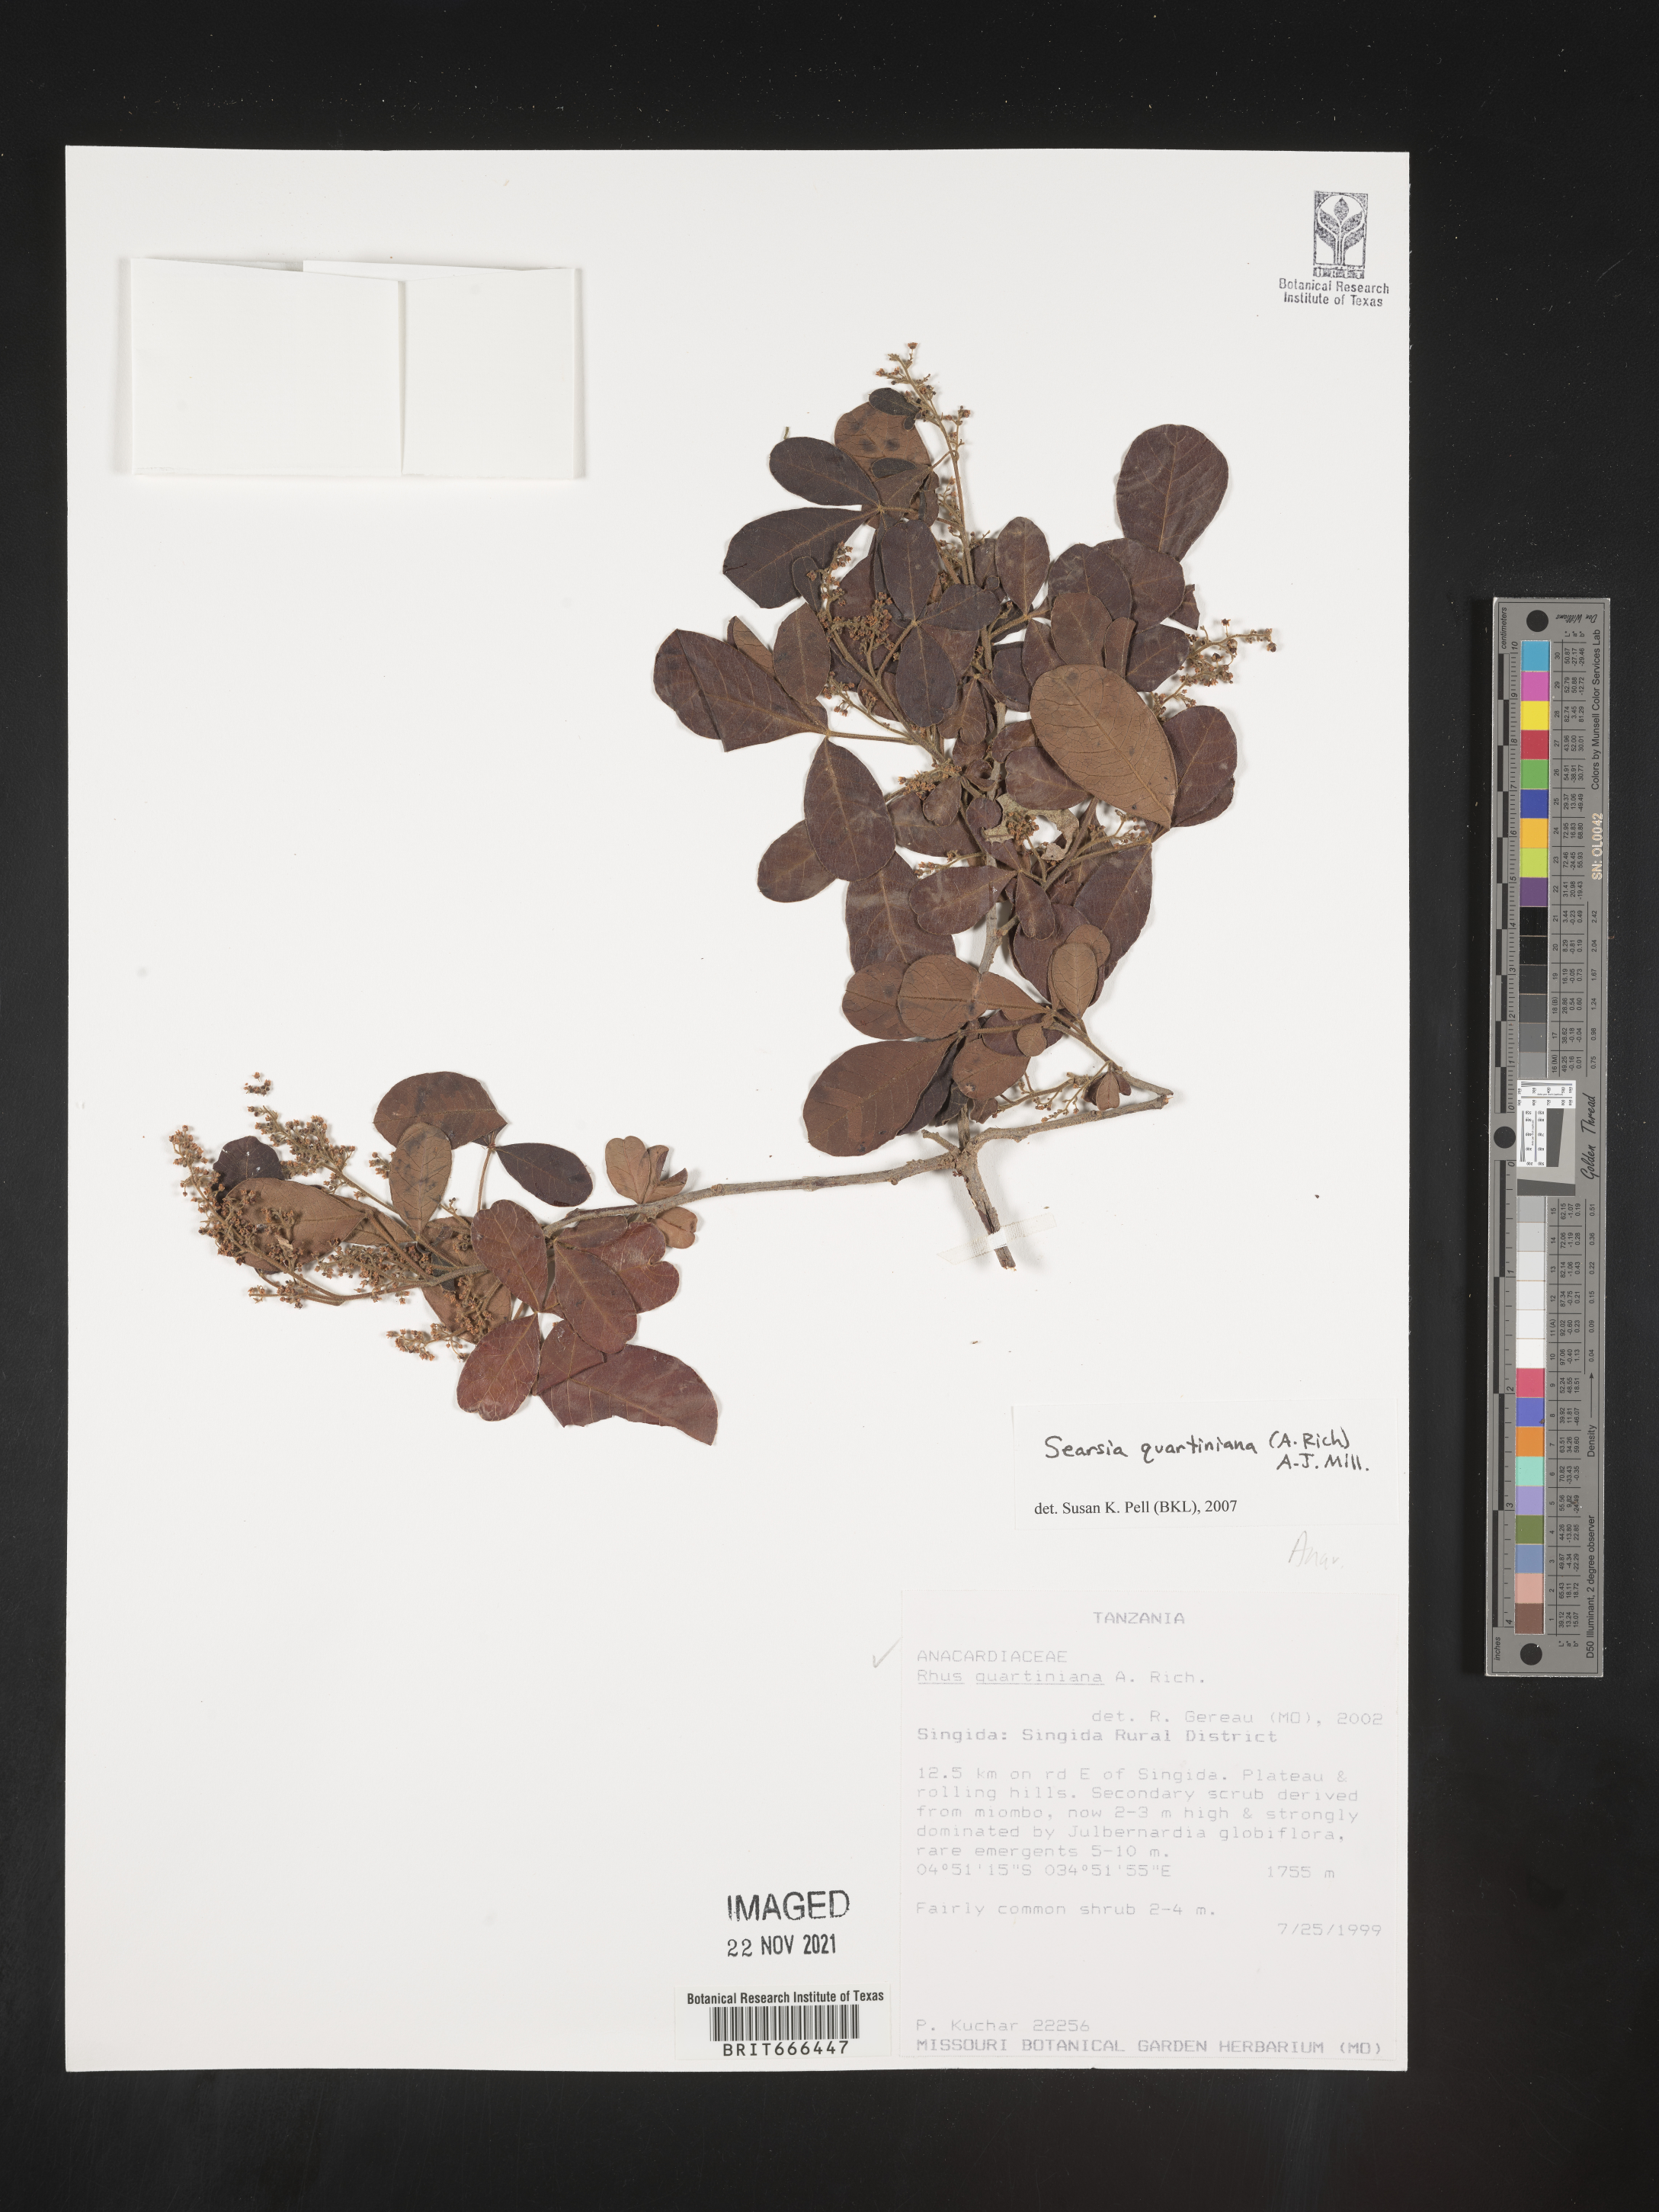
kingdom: Plantae
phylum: Tracheophyta
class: Magnoliopsida
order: Sapindales
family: Anacardiaceae
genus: Searsia
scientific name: Searsia
